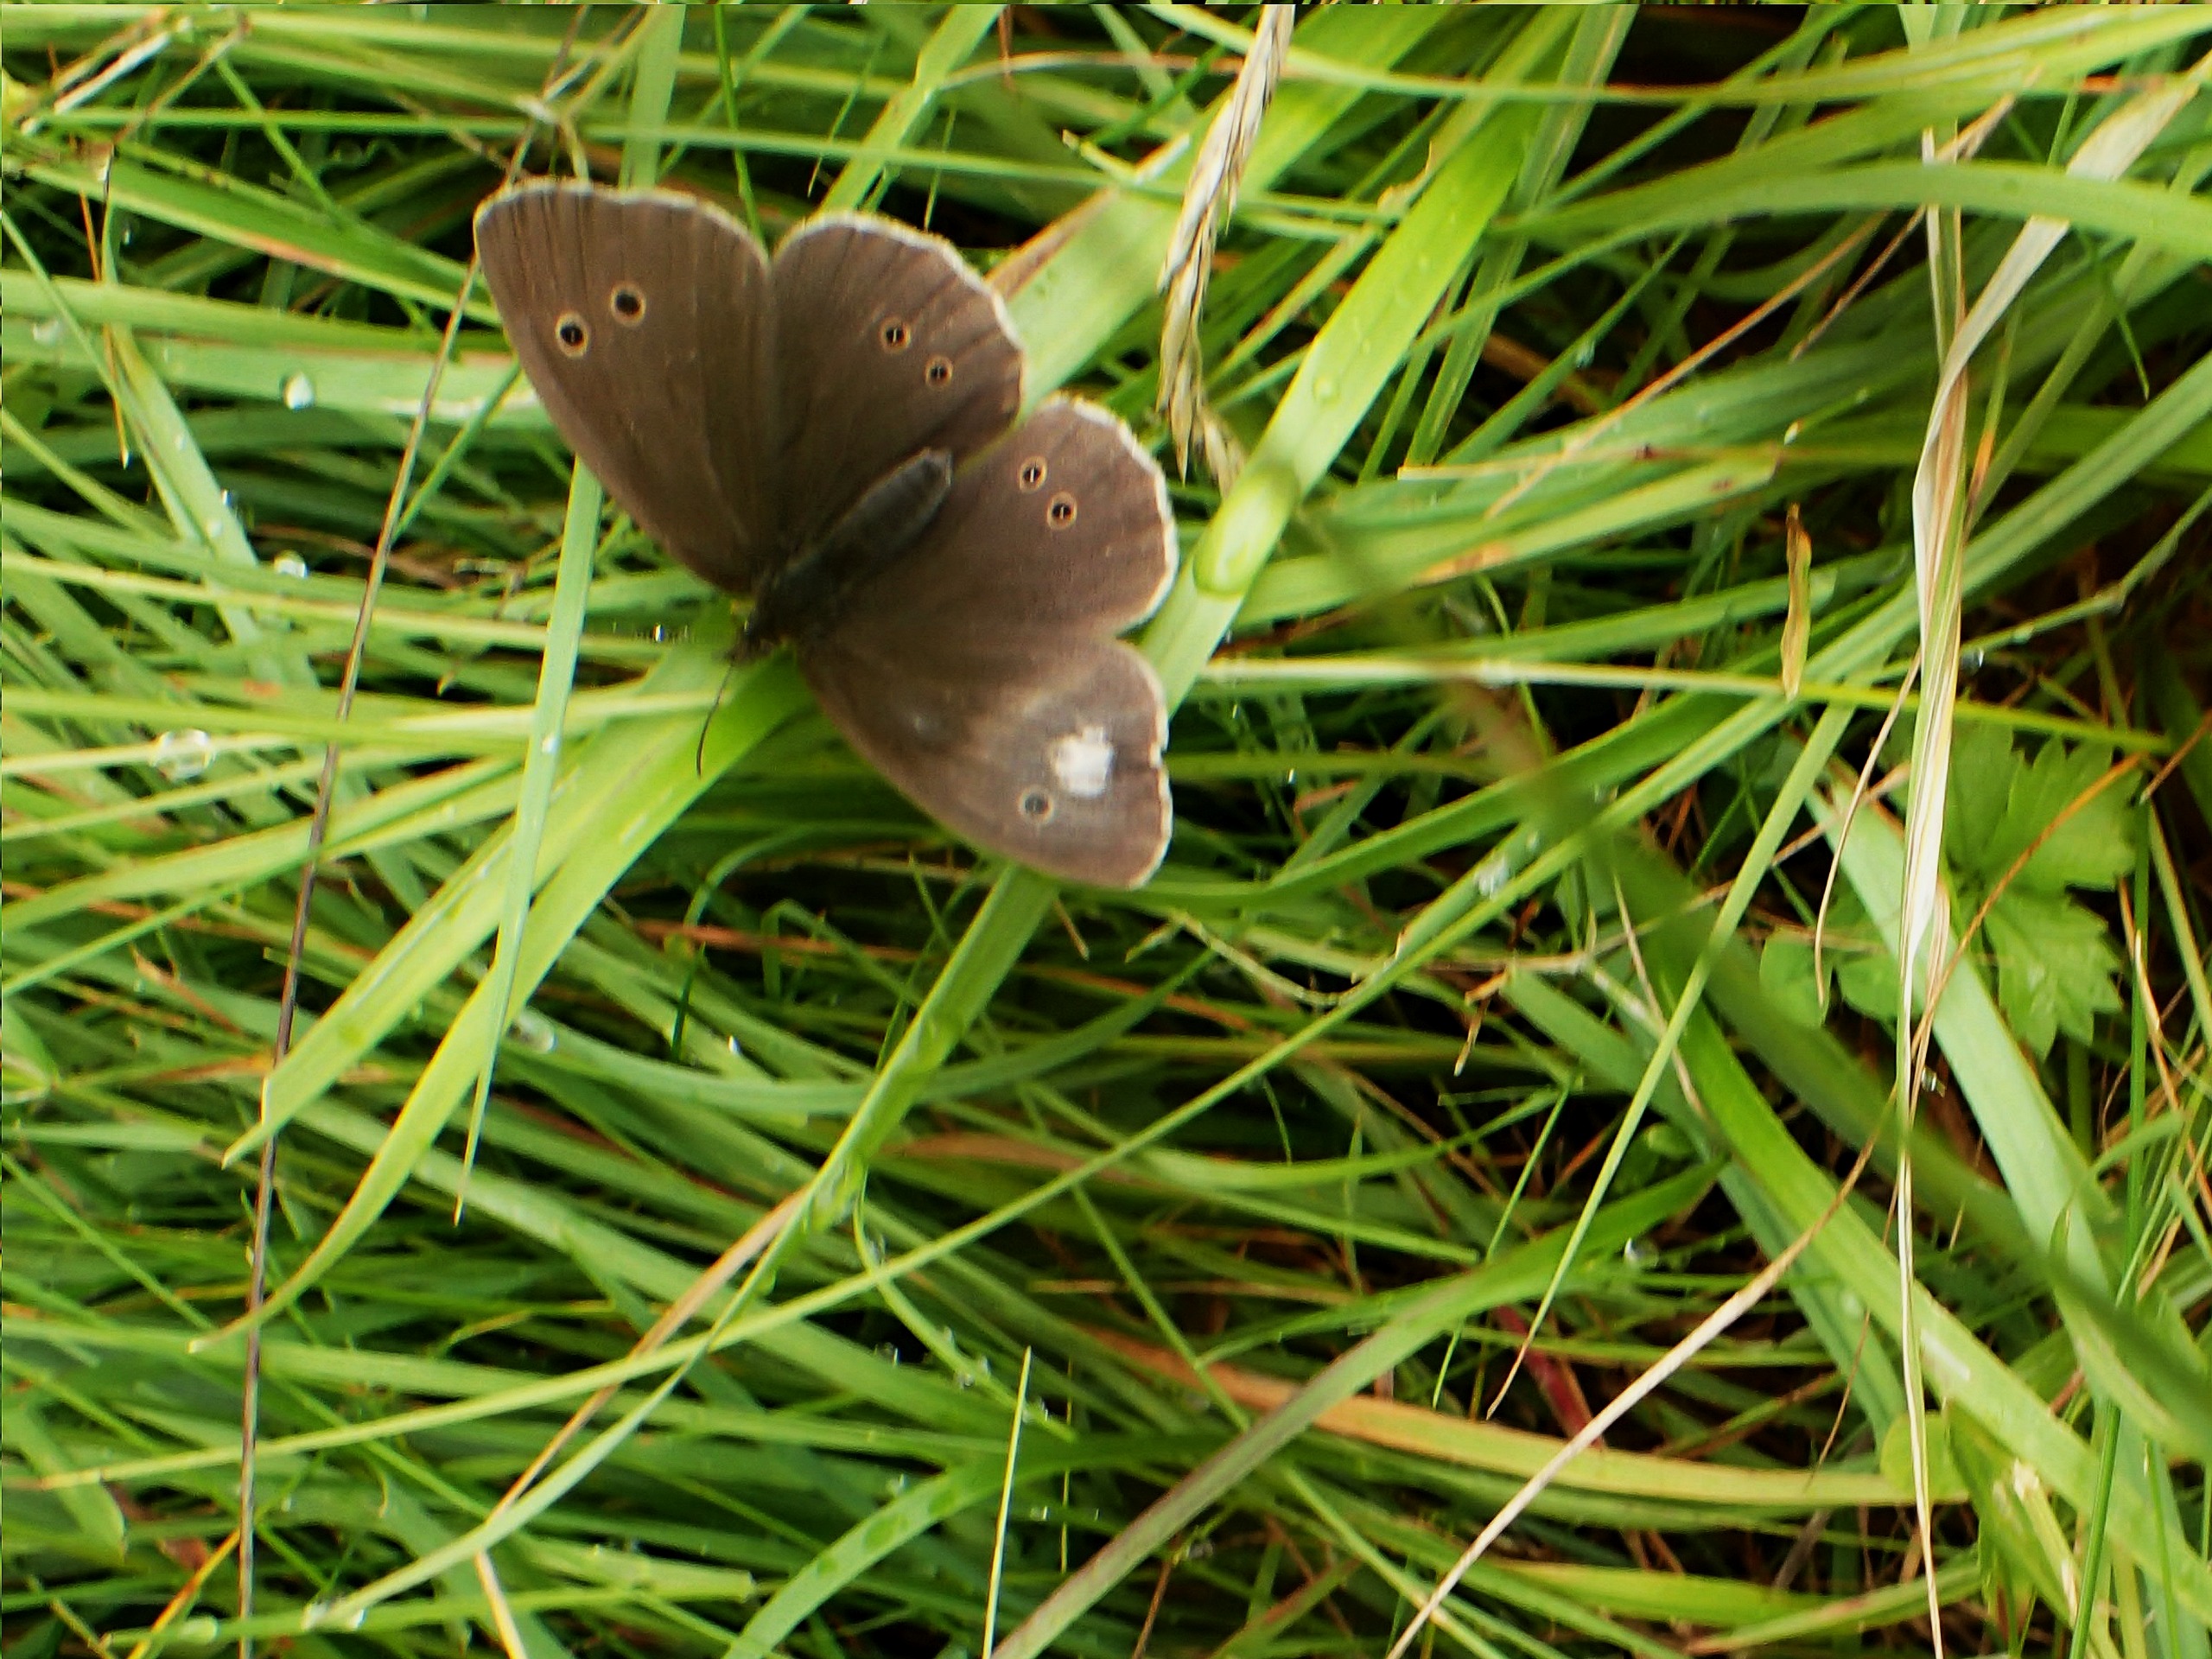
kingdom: Animalia
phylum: Arthropoda
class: Insecta
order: Lepidoptera
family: Nymphalidae
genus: Aphantopus
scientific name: Aphantopus hyperantus
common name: Engrandøje
